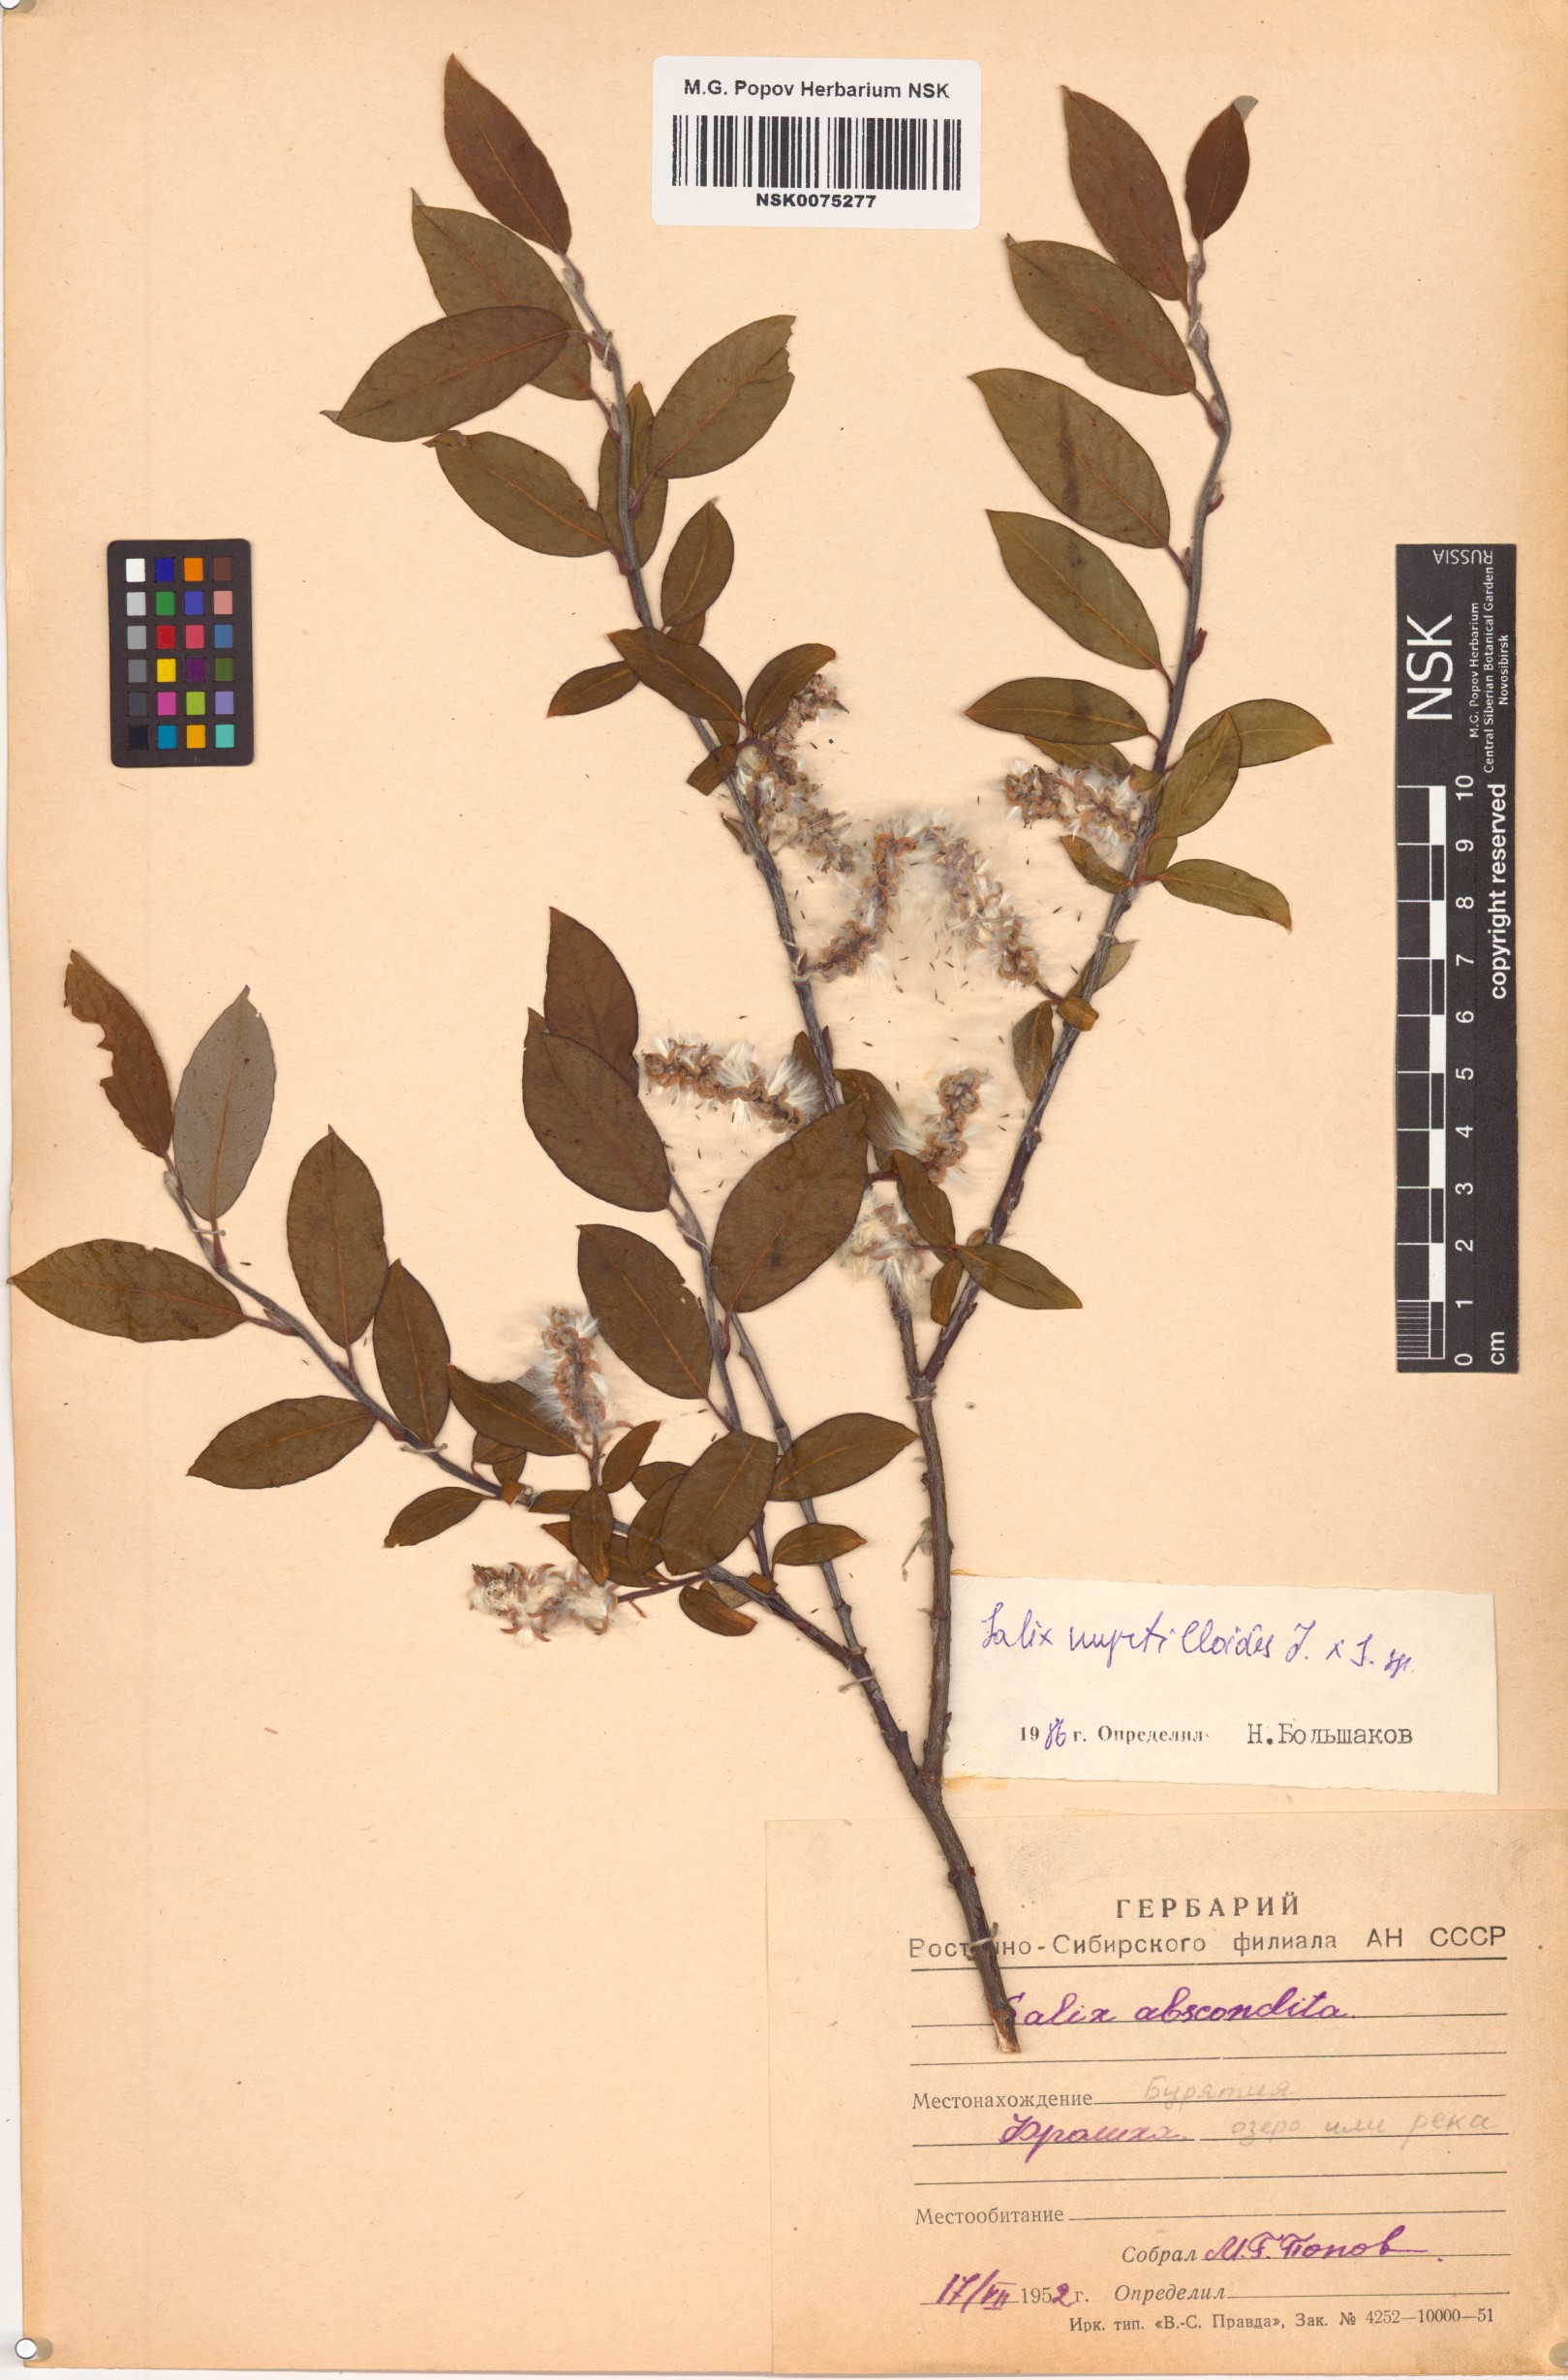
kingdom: Plantae
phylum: Tracheophyta
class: Magnoliopsida
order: Malpighiales
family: Salicaceae
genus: Salix
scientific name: Salix myrtilloides
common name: Myrtle-leaved willow
